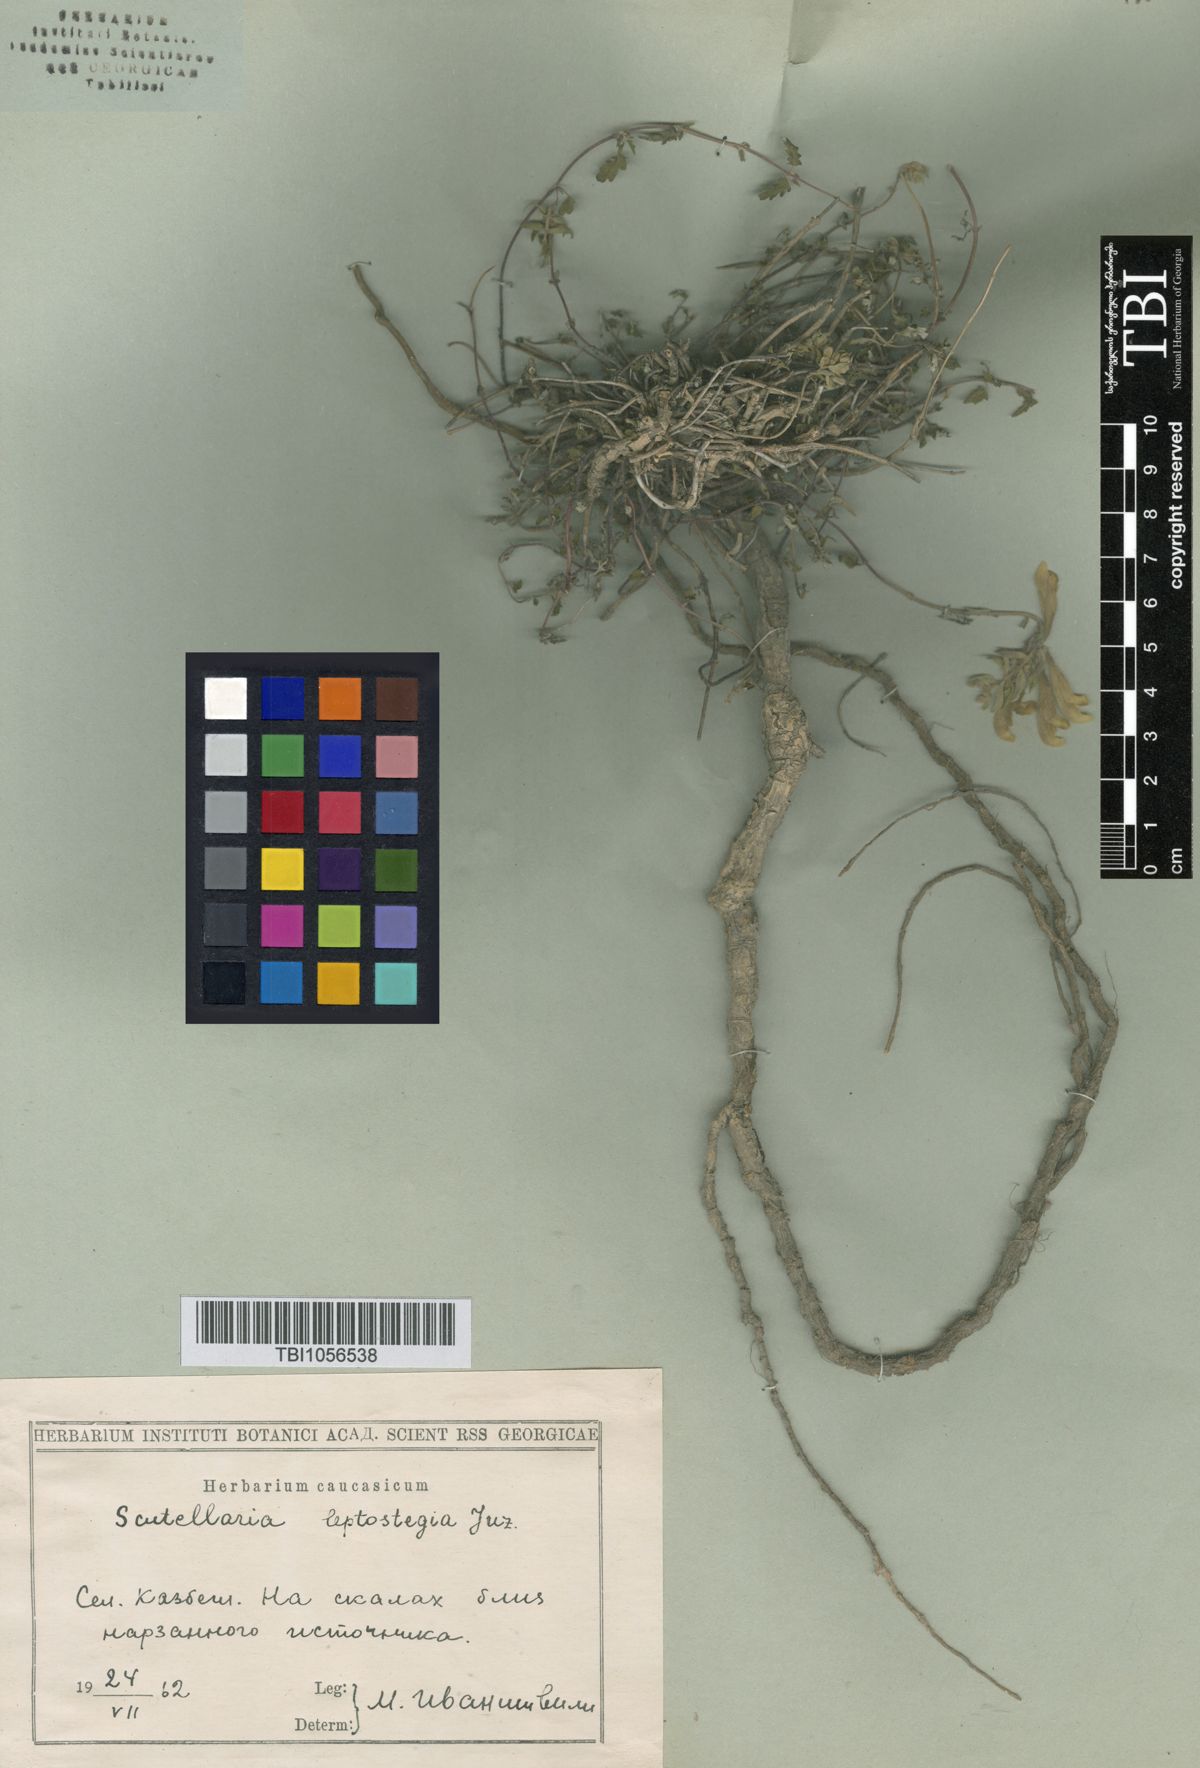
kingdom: Plantae
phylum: Tracheophyta
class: Magnoliopsida
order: Lamiales
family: Lamiaceae
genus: Scutellaria
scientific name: Scutellaria leptostegia
